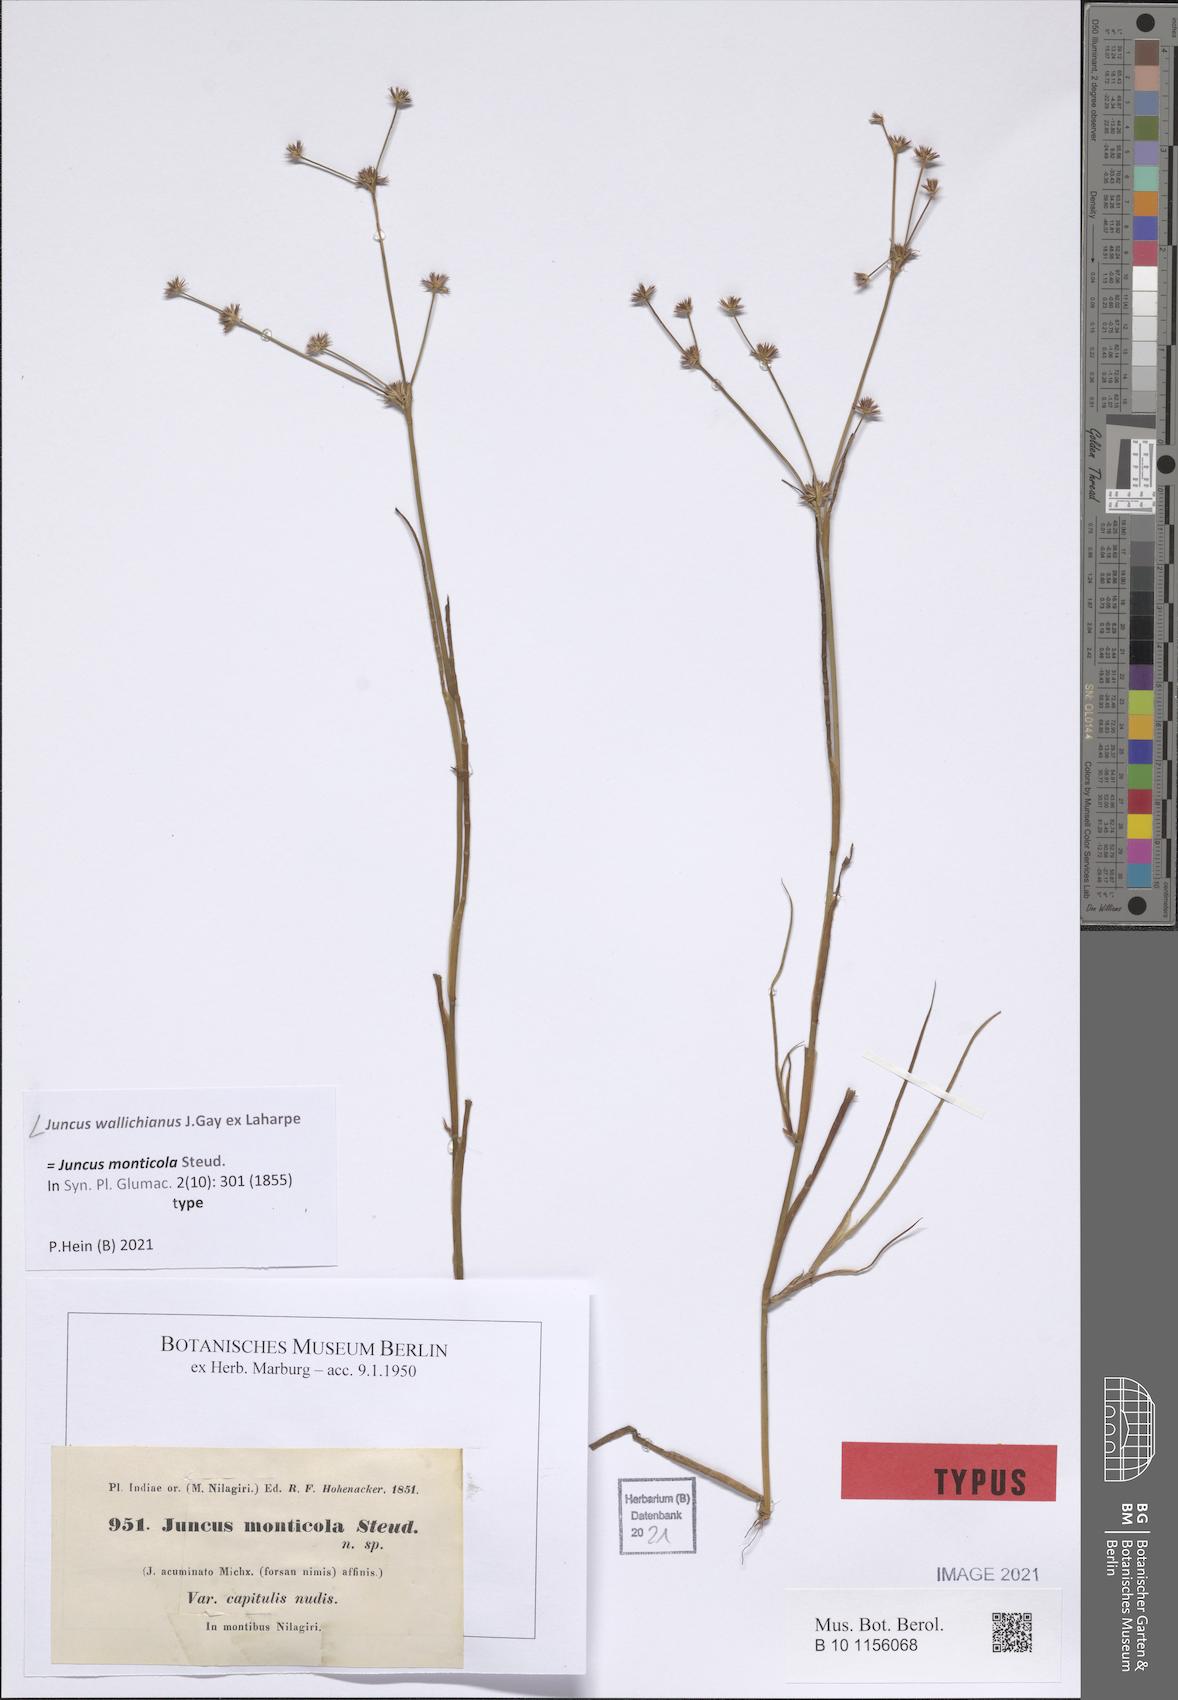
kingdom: Plantae
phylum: Tracheophyta
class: Liliopsida
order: Poales
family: Juncaceae
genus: Juncus
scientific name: Juncus wallichianus
